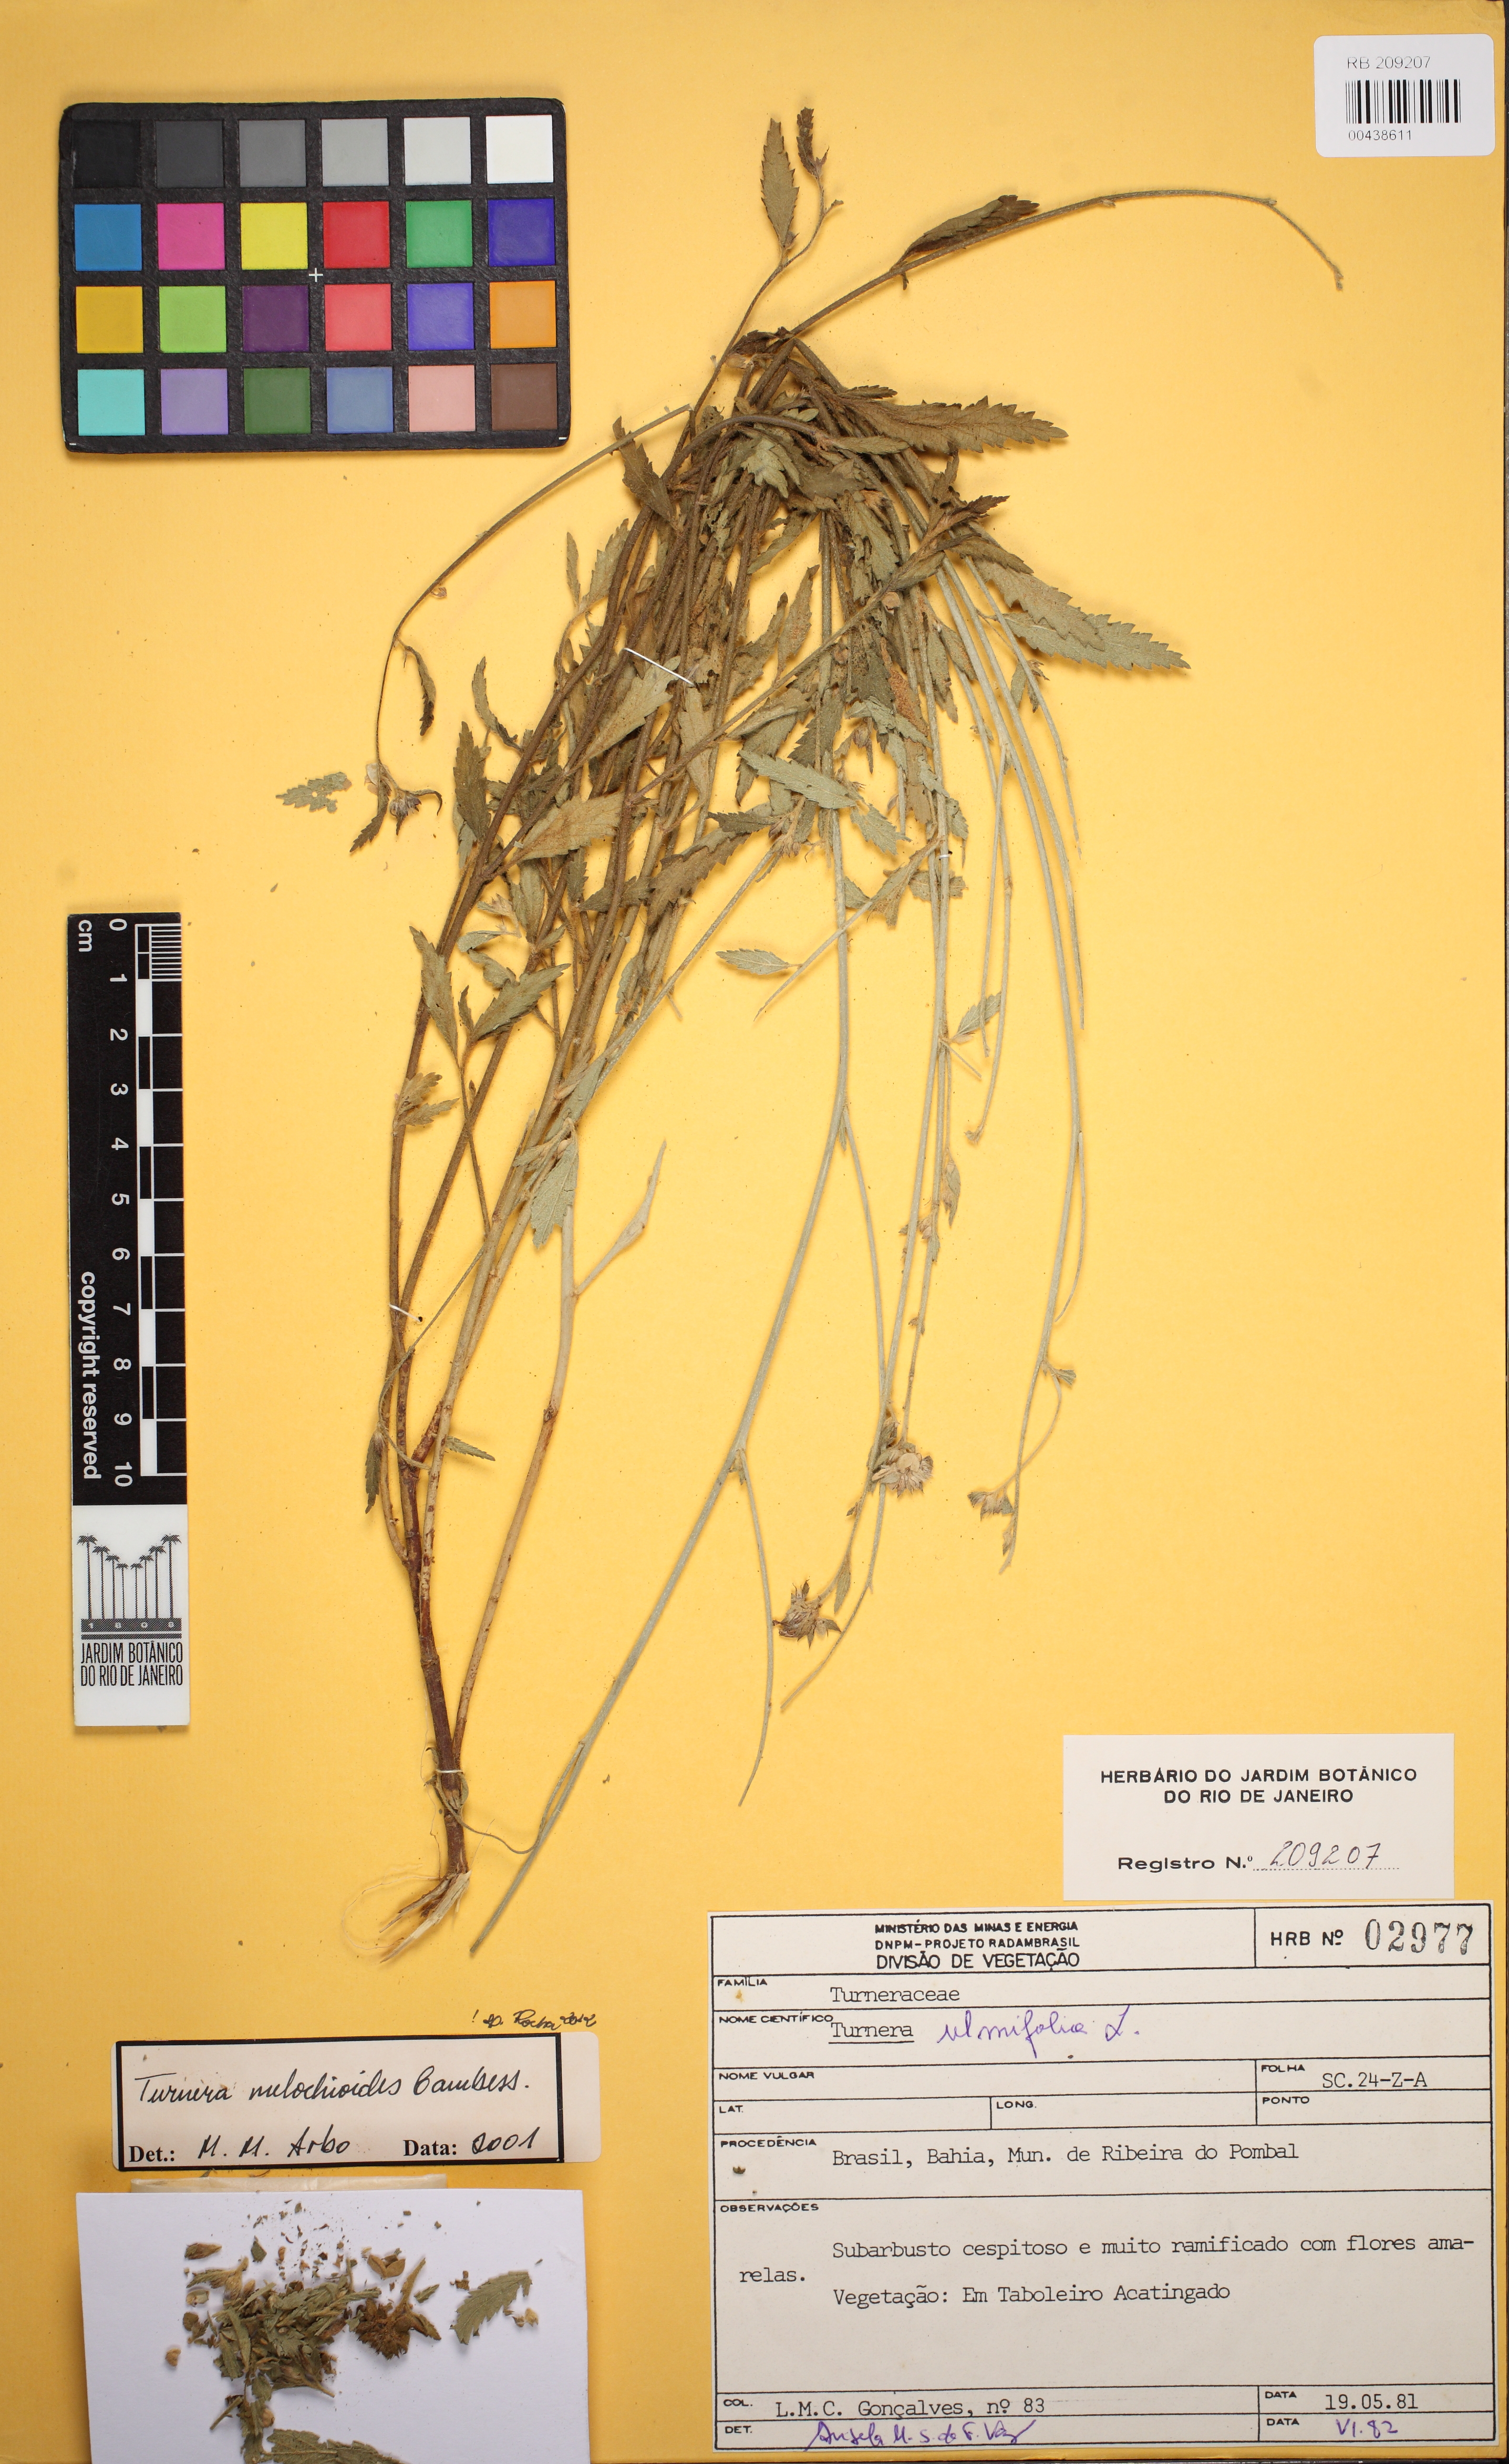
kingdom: Plantae
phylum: Tracheophyta
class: Magnoliopsida
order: Malpighiales
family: Turneraceae
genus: Turnera
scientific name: Turnera melochioides
